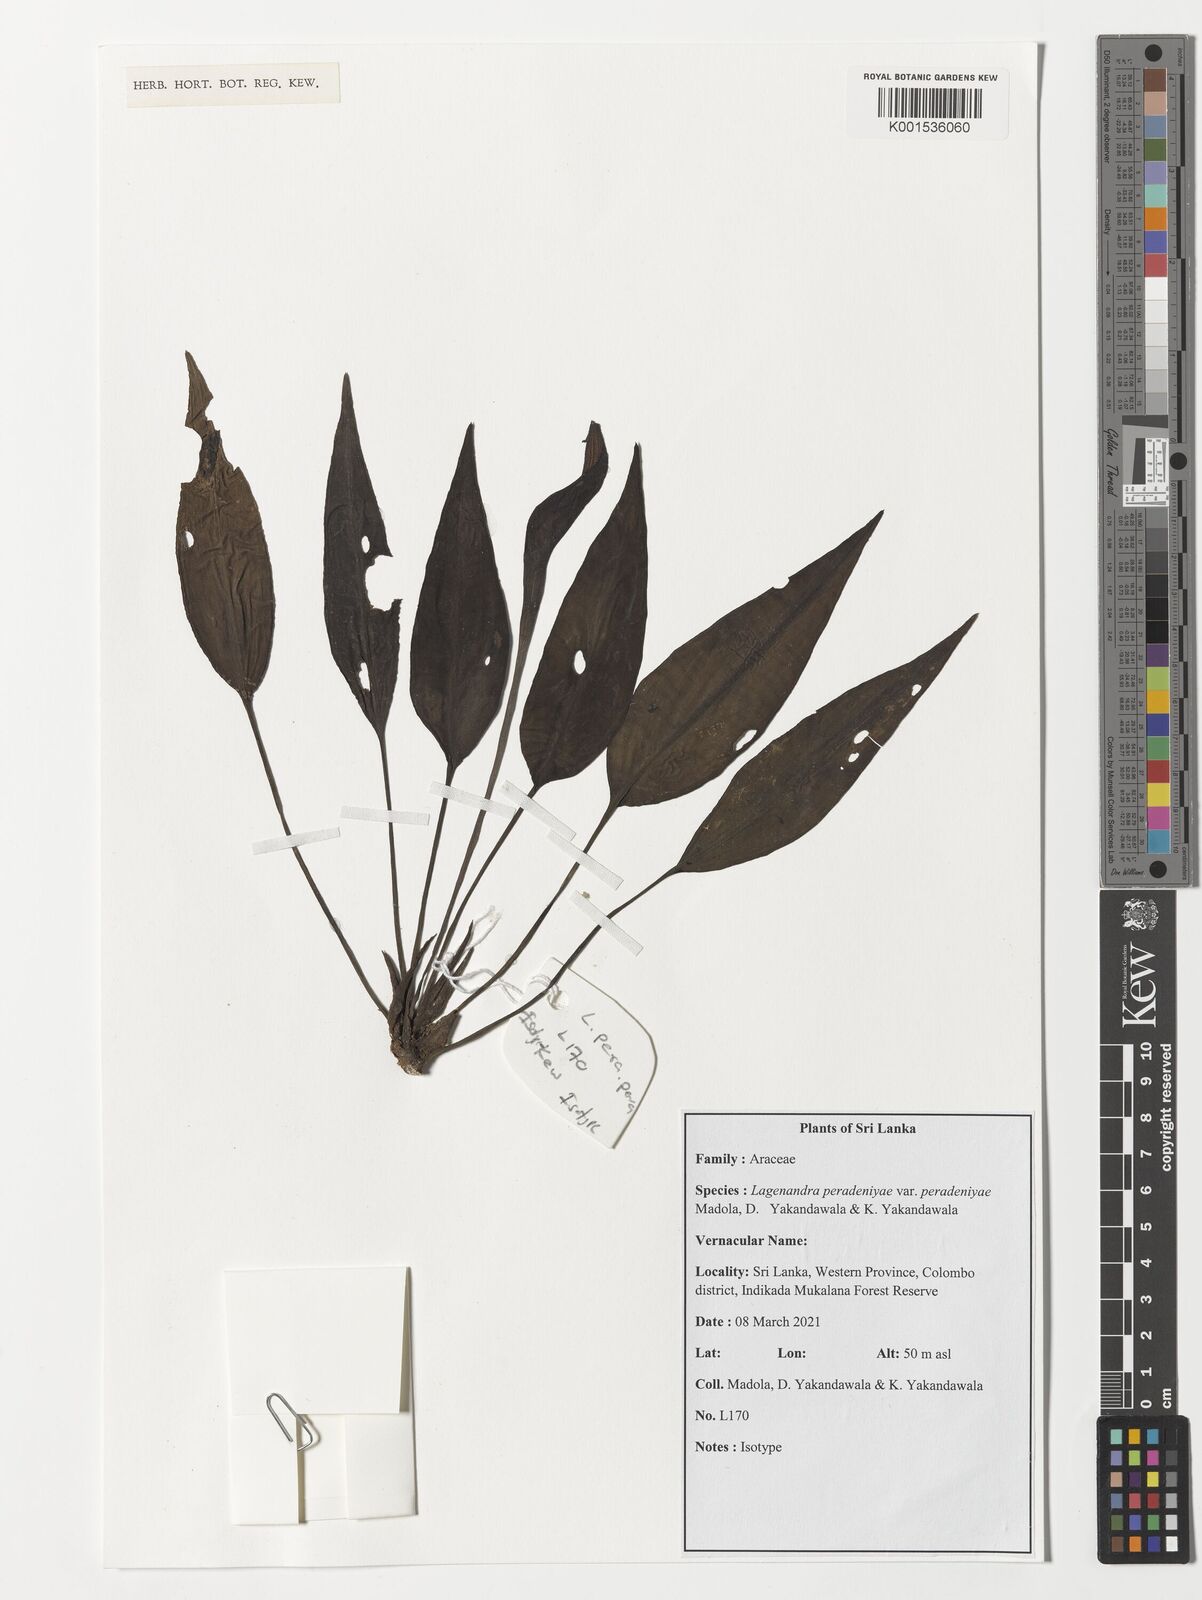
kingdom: Plantae
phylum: Tracheophyta
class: Liliopsida
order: Alismatales
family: Araceae
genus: Lagenandra
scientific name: Lagenandra
